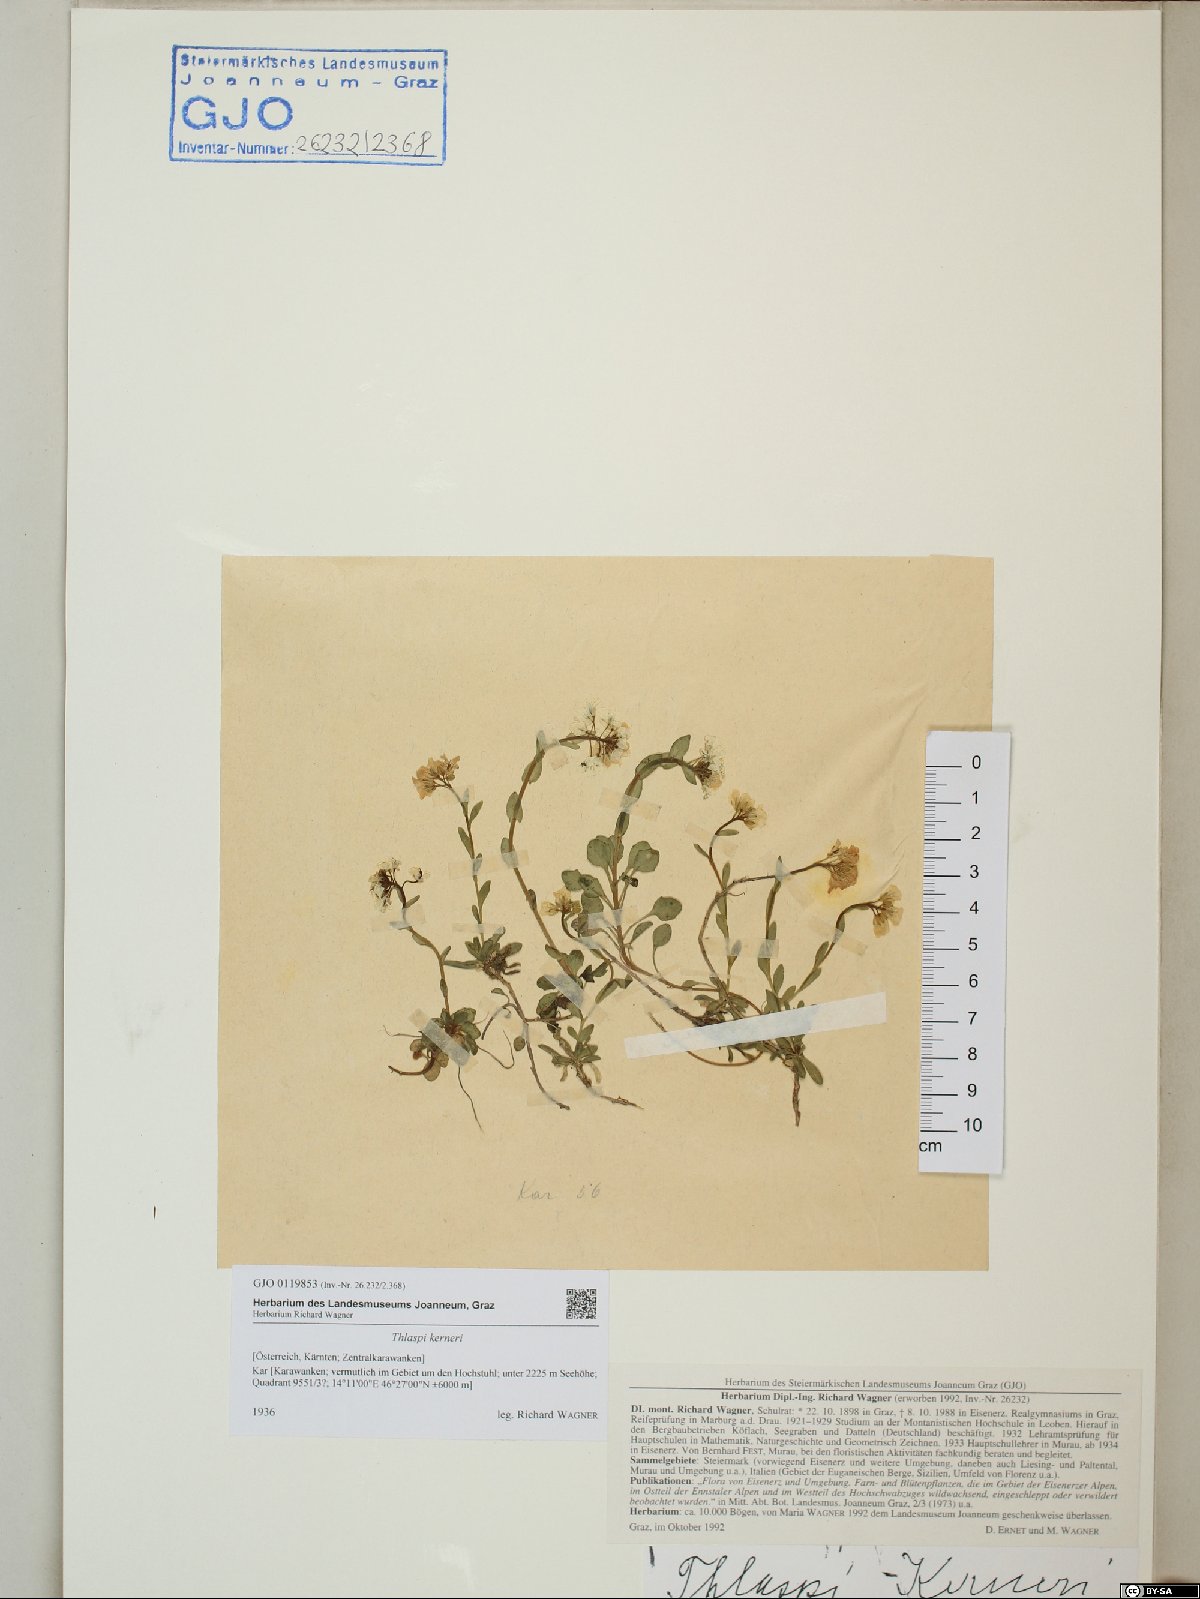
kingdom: Plantae
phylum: Tracheophyta
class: Magnoliopsida
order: Brassicales
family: Brassicaceae
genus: Noccaea
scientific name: Noccaea minima
